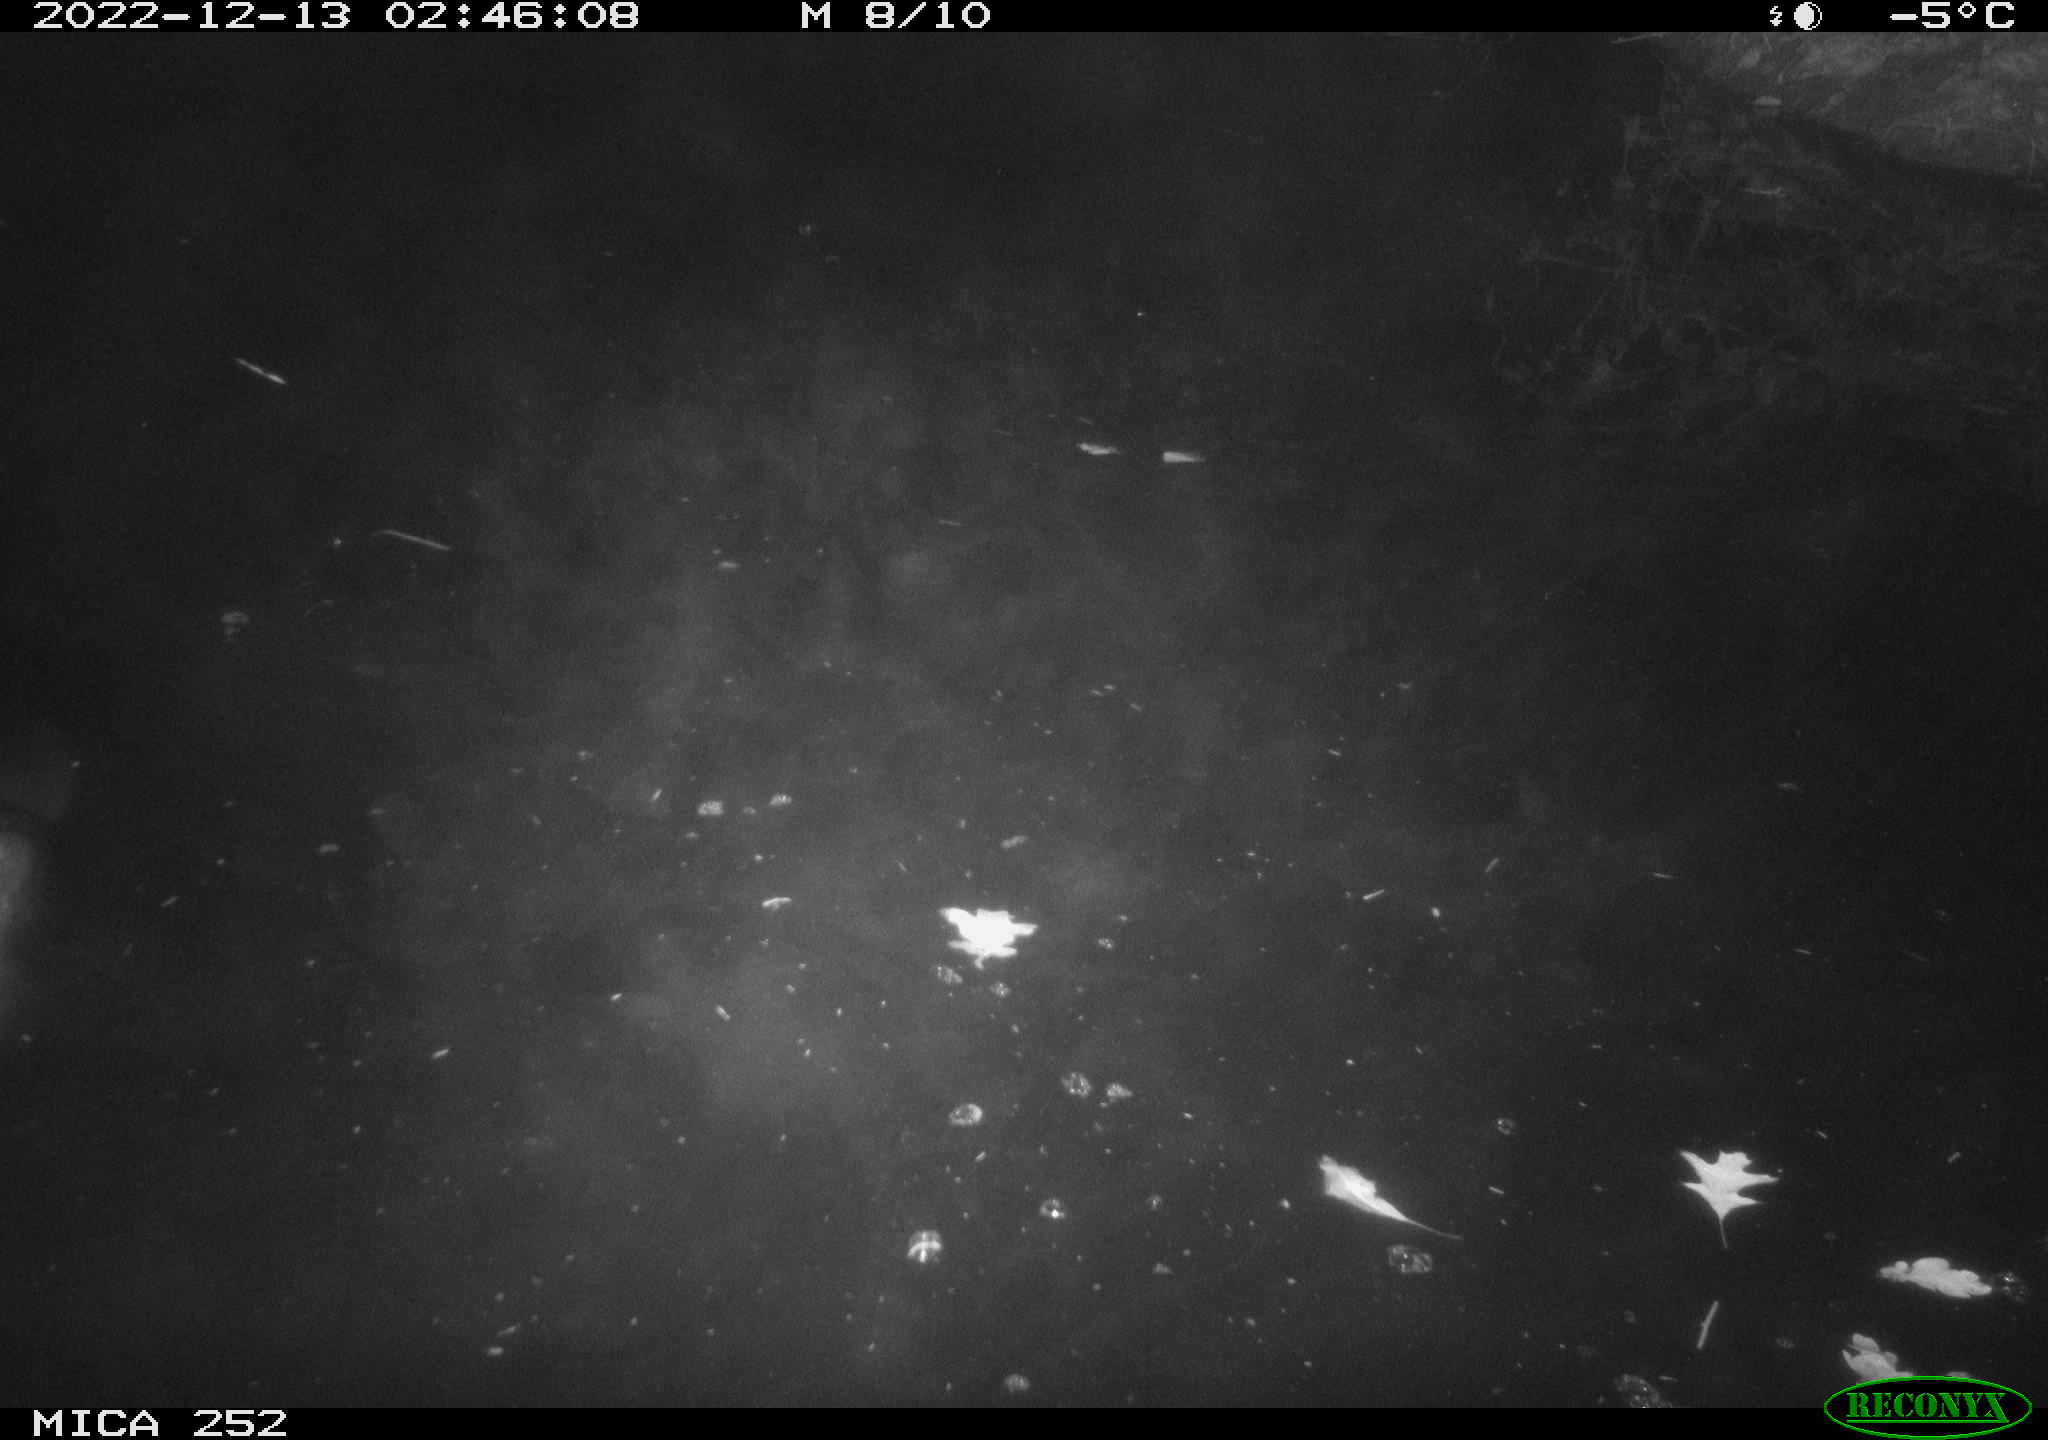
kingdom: Animalia
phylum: Chordata
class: Mammalia
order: Rodentia
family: Castoridae
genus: Castor
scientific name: Castor fiber
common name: Eurasian beaver
